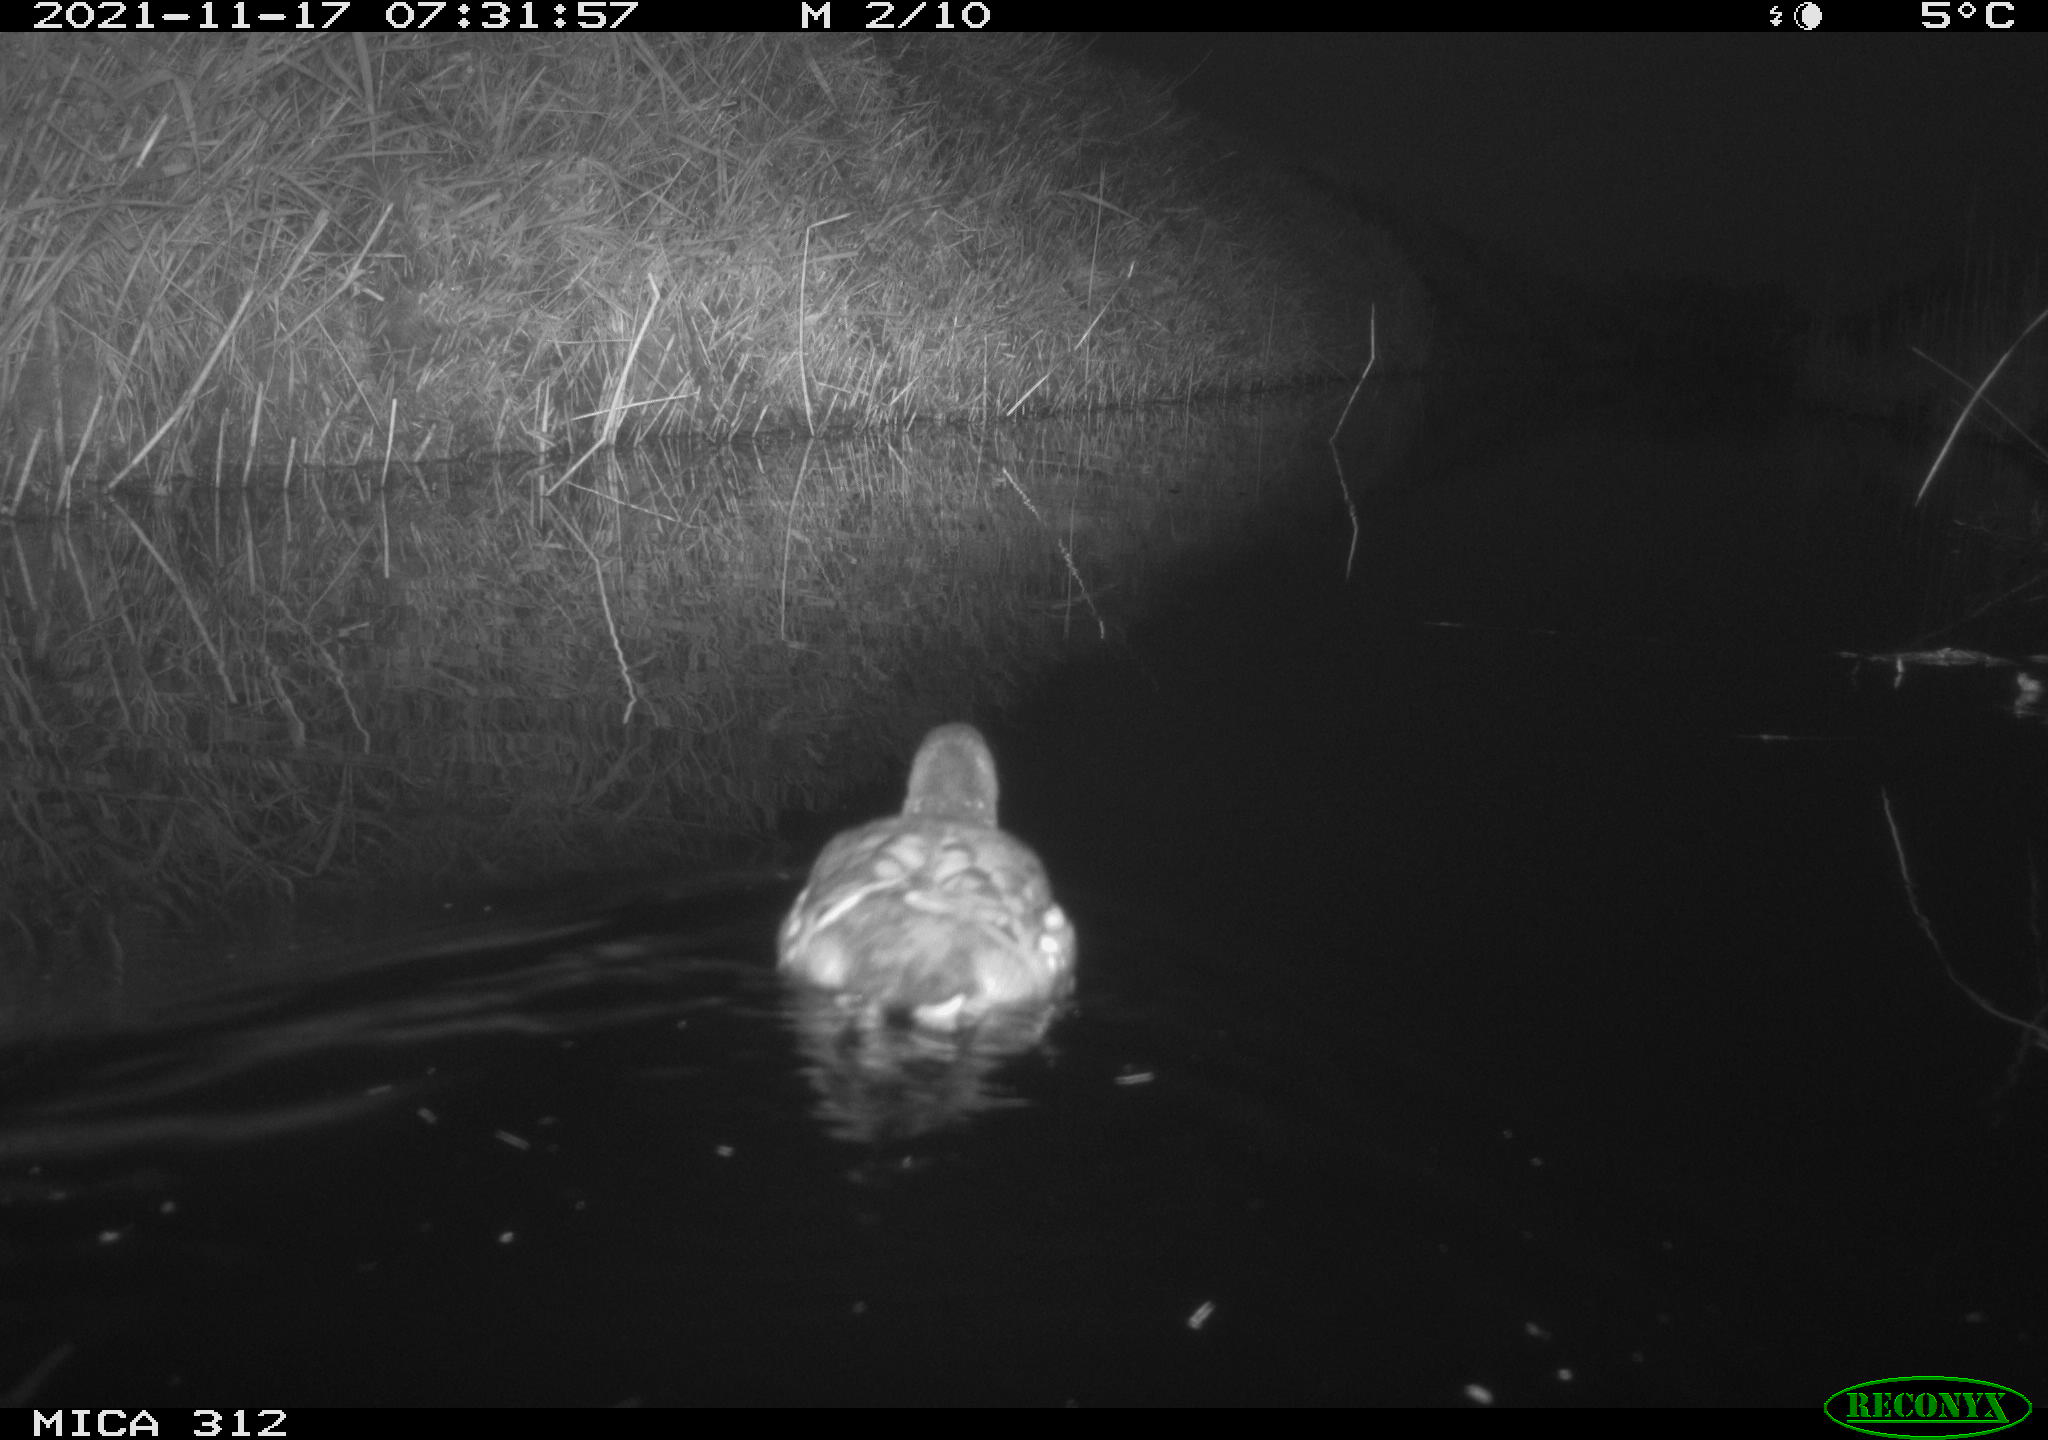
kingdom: Animalia
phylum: Chordata
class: Aves
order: Anseriformes
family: Anatidae
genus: Anas
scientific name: Anas
